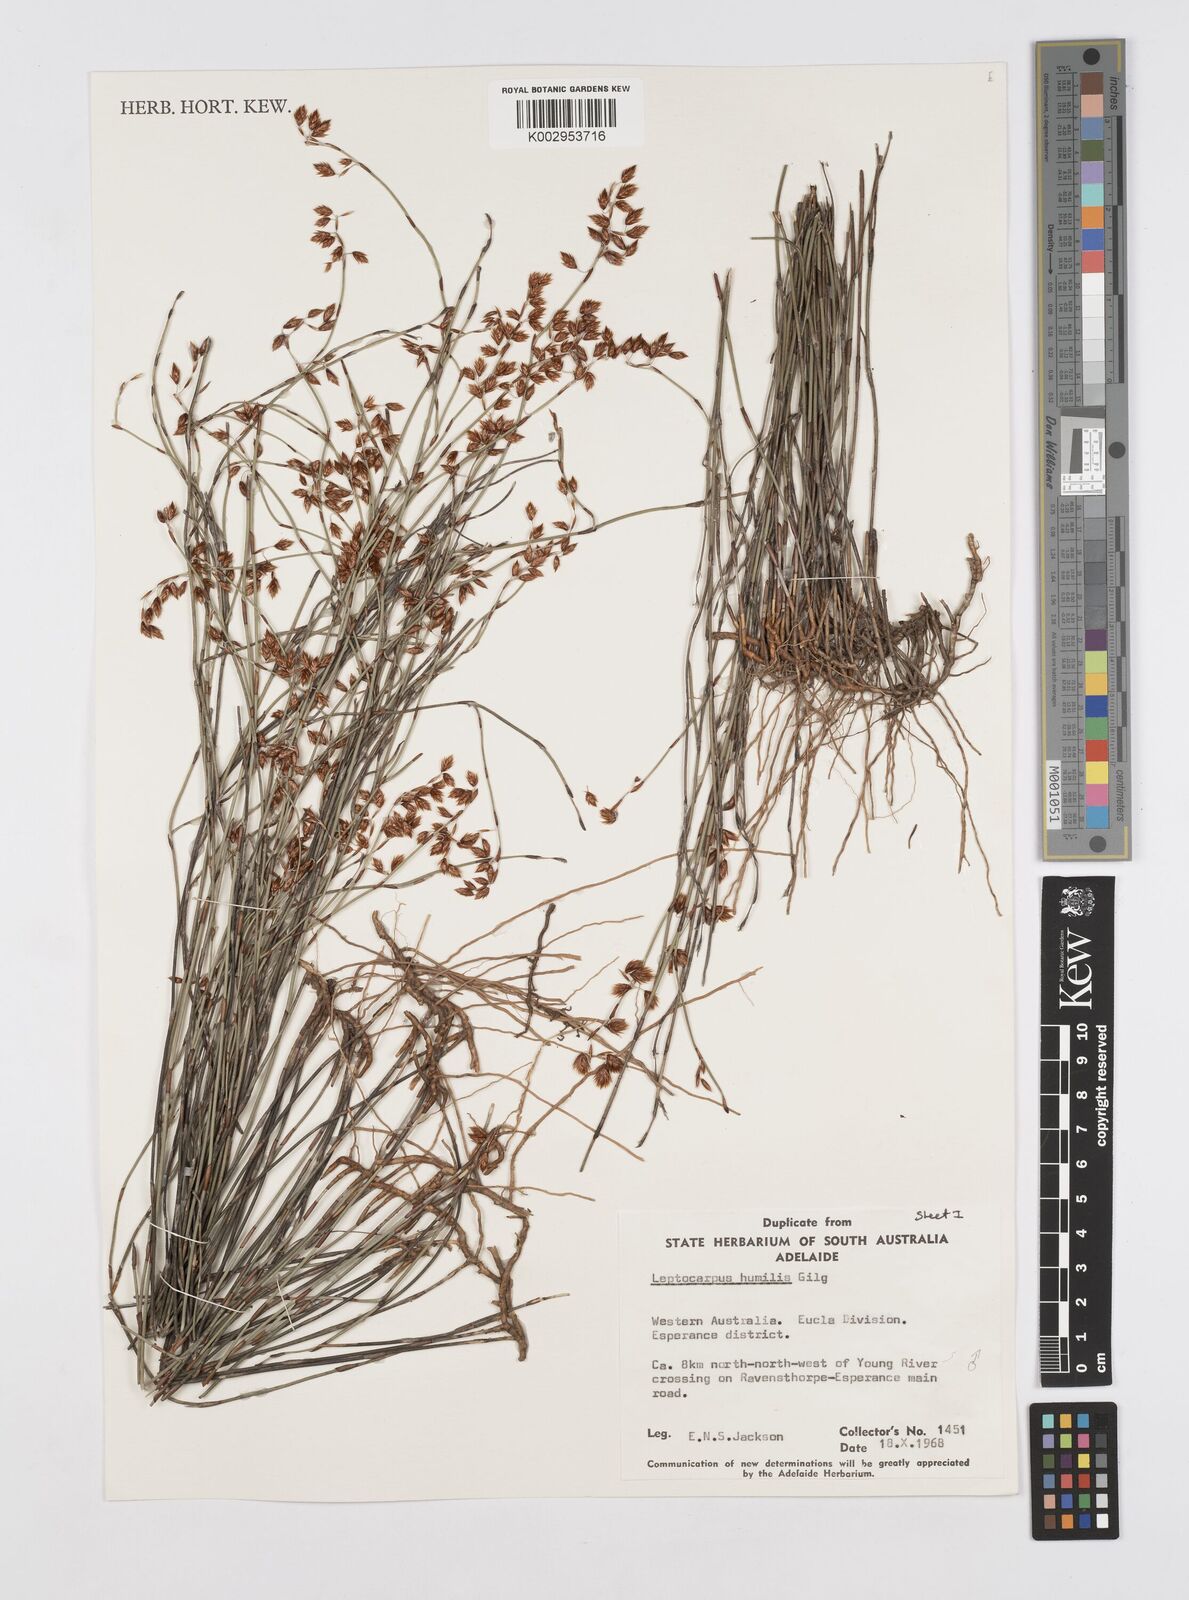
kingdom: Plantae
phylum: Tracheophyta
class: Liliopsida
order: Poales
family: Restionaceae
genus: Hypolaena
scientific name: Hypolaena humilis
